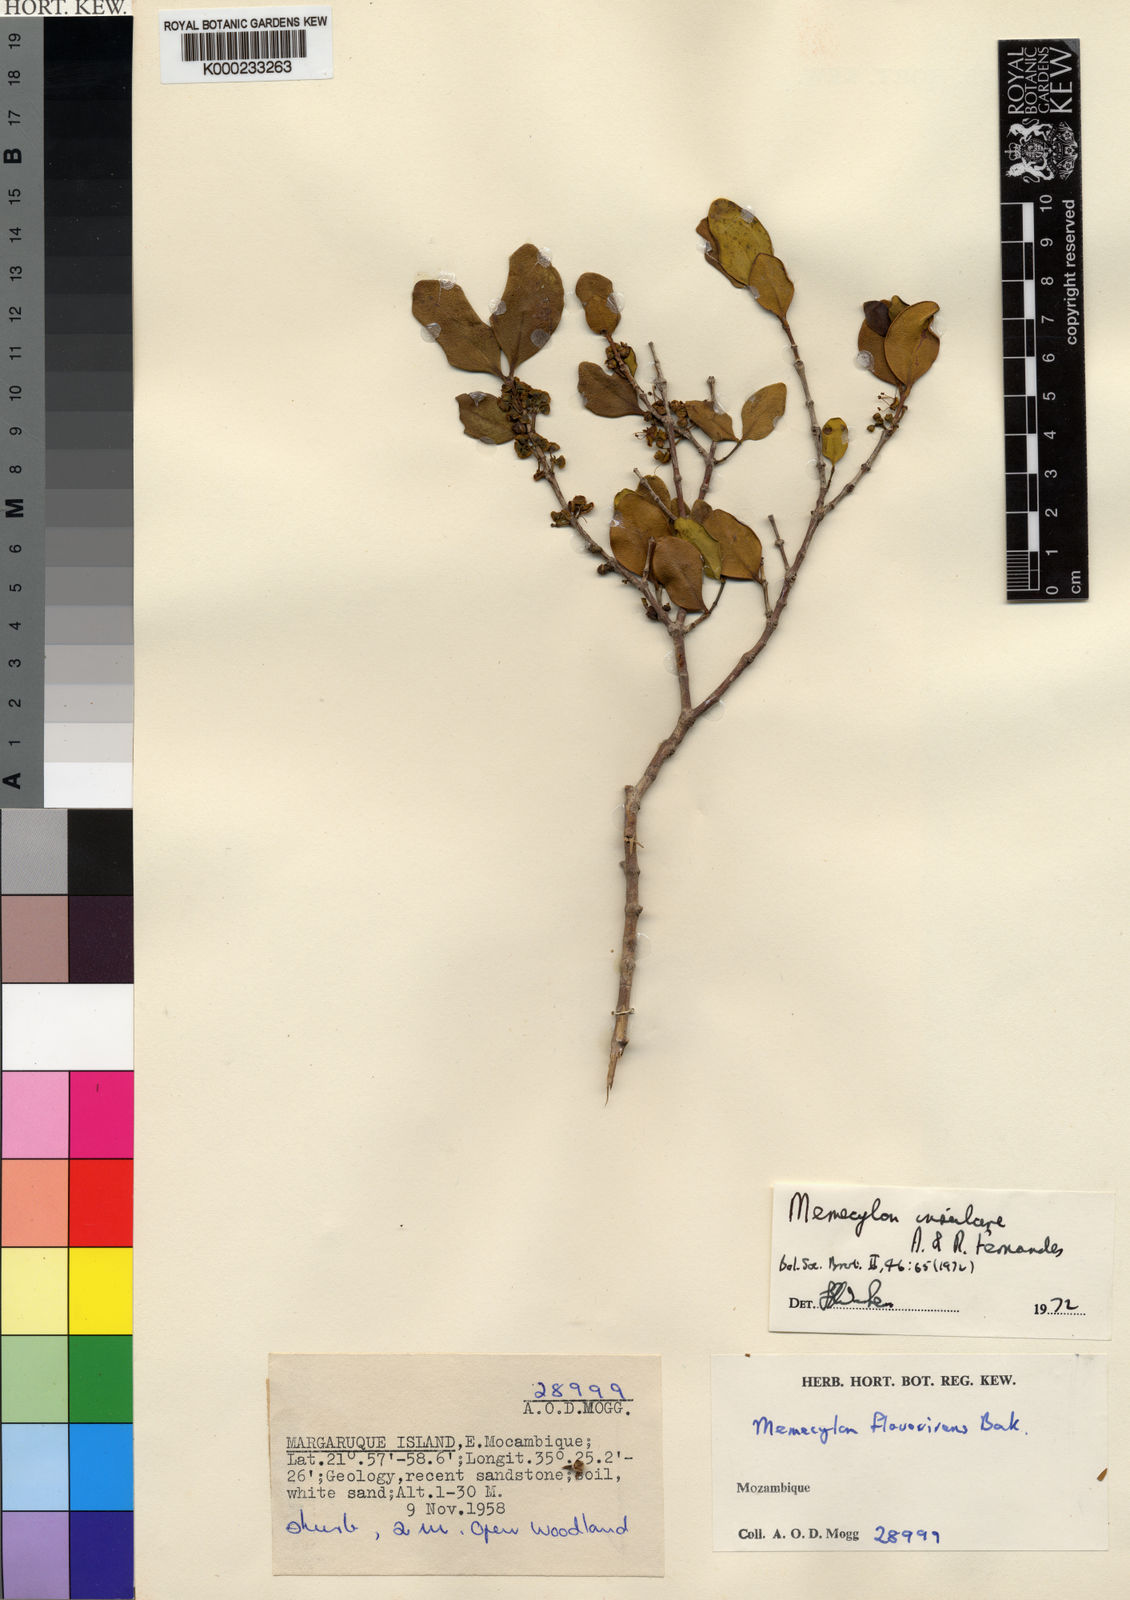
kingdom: Plantae
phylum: Tracheophyta
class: Magnoliopsida
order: Myrtales
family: Melastomataceae
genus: Memecylon
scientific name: Memecylon insulare
